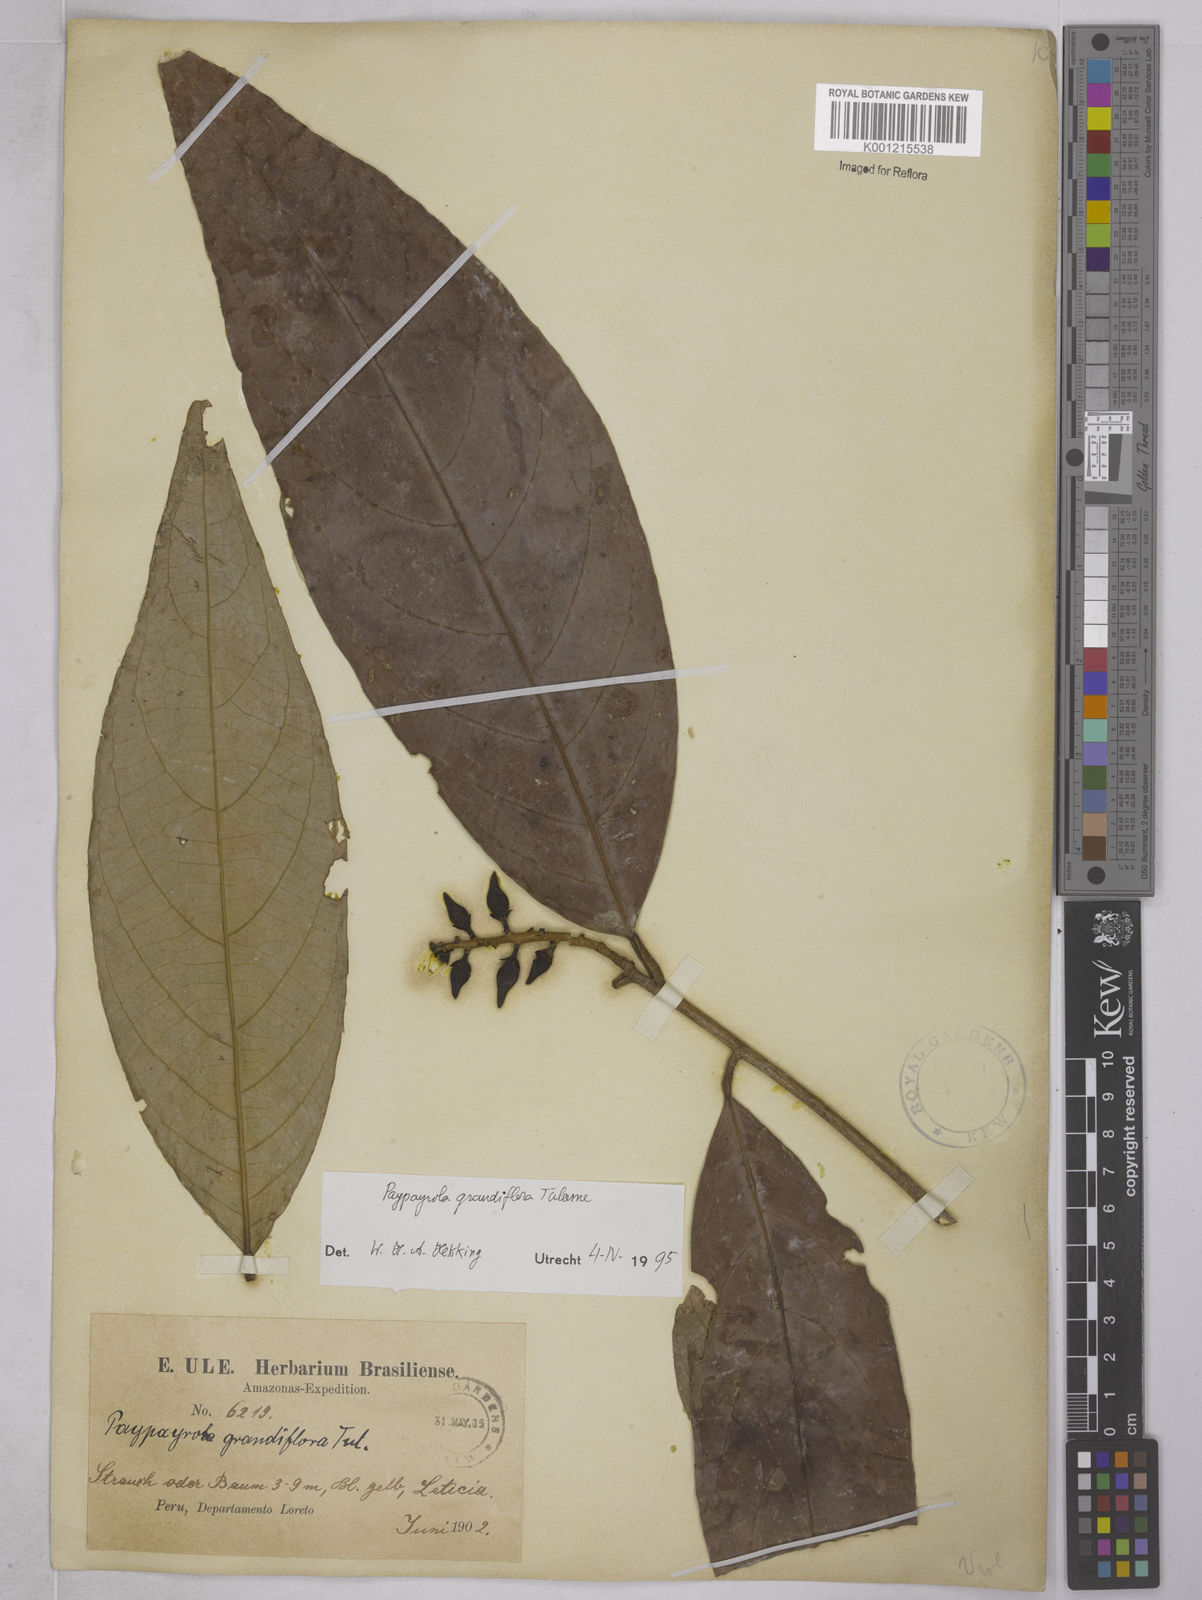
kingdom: Plantae
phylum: Tracheophyta
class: Magnoliopsida
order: Malpighiales
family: Violaceae
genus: Paypayrola
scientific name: Paypayrola grandiflora
